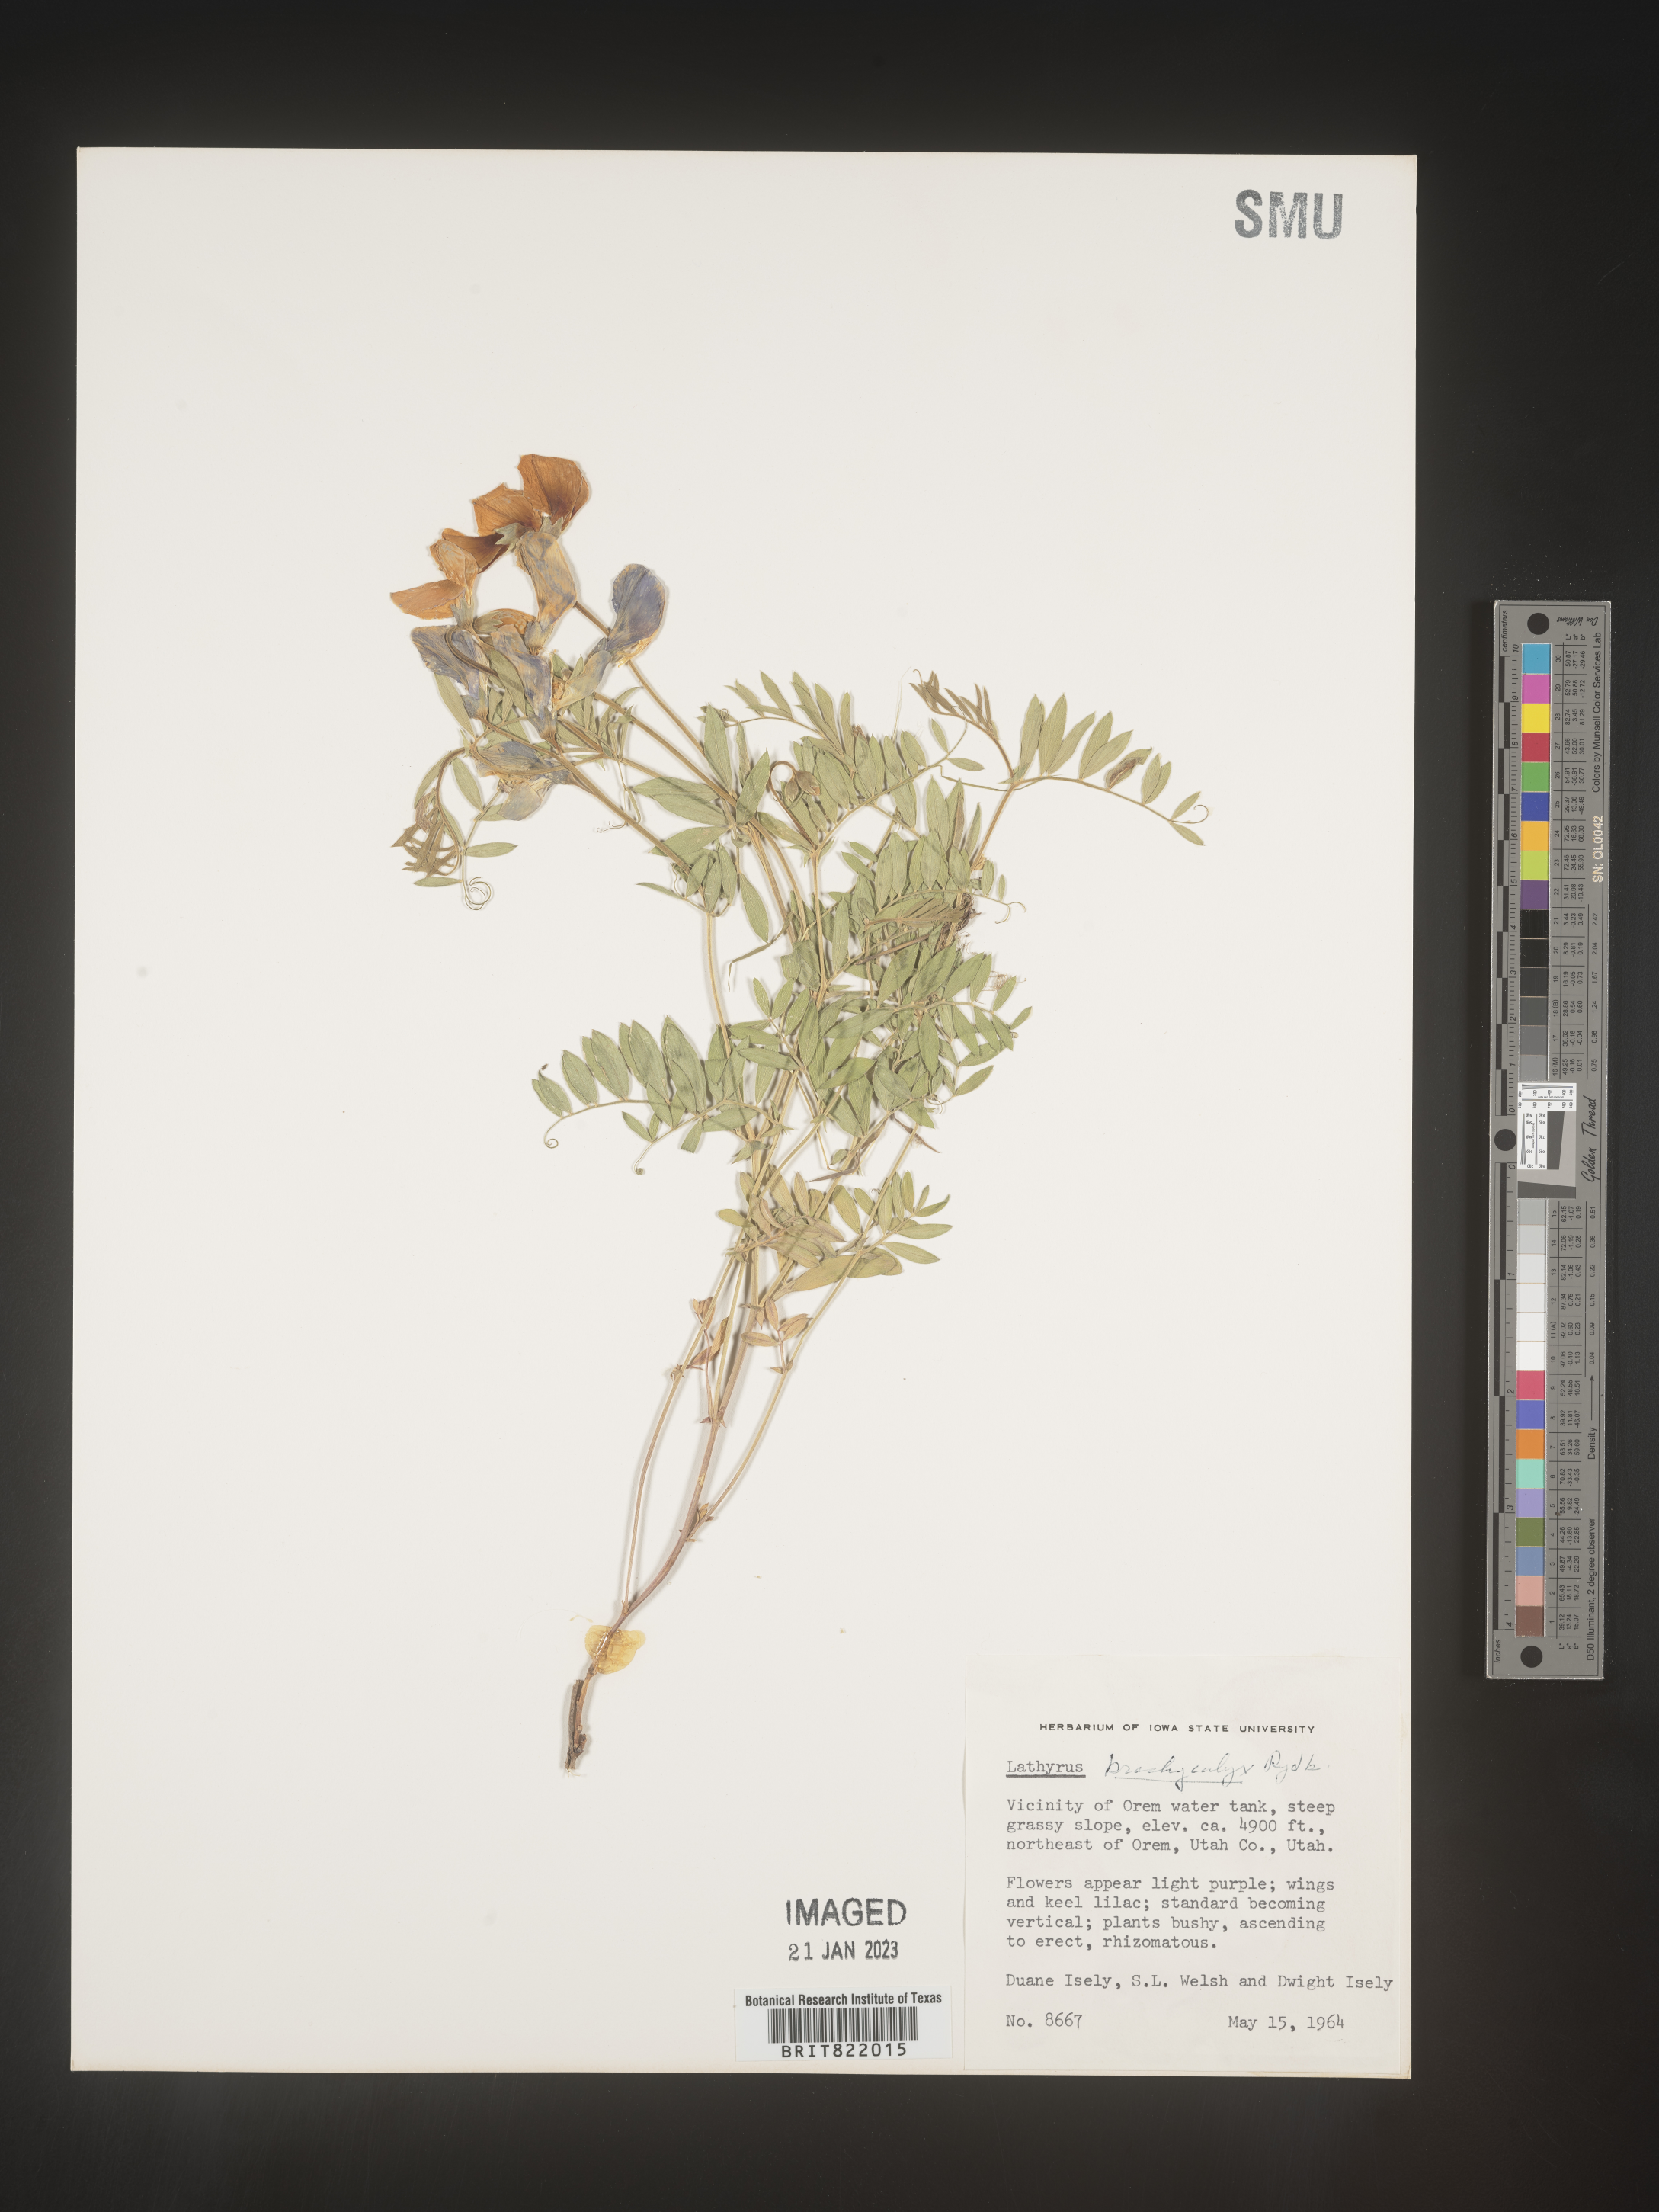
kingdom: Plantae
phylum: Tracheophyta
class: Magnoliopsida
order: Fabales
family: Fabaceae
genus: Lathyrus
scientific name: Lathyrus
